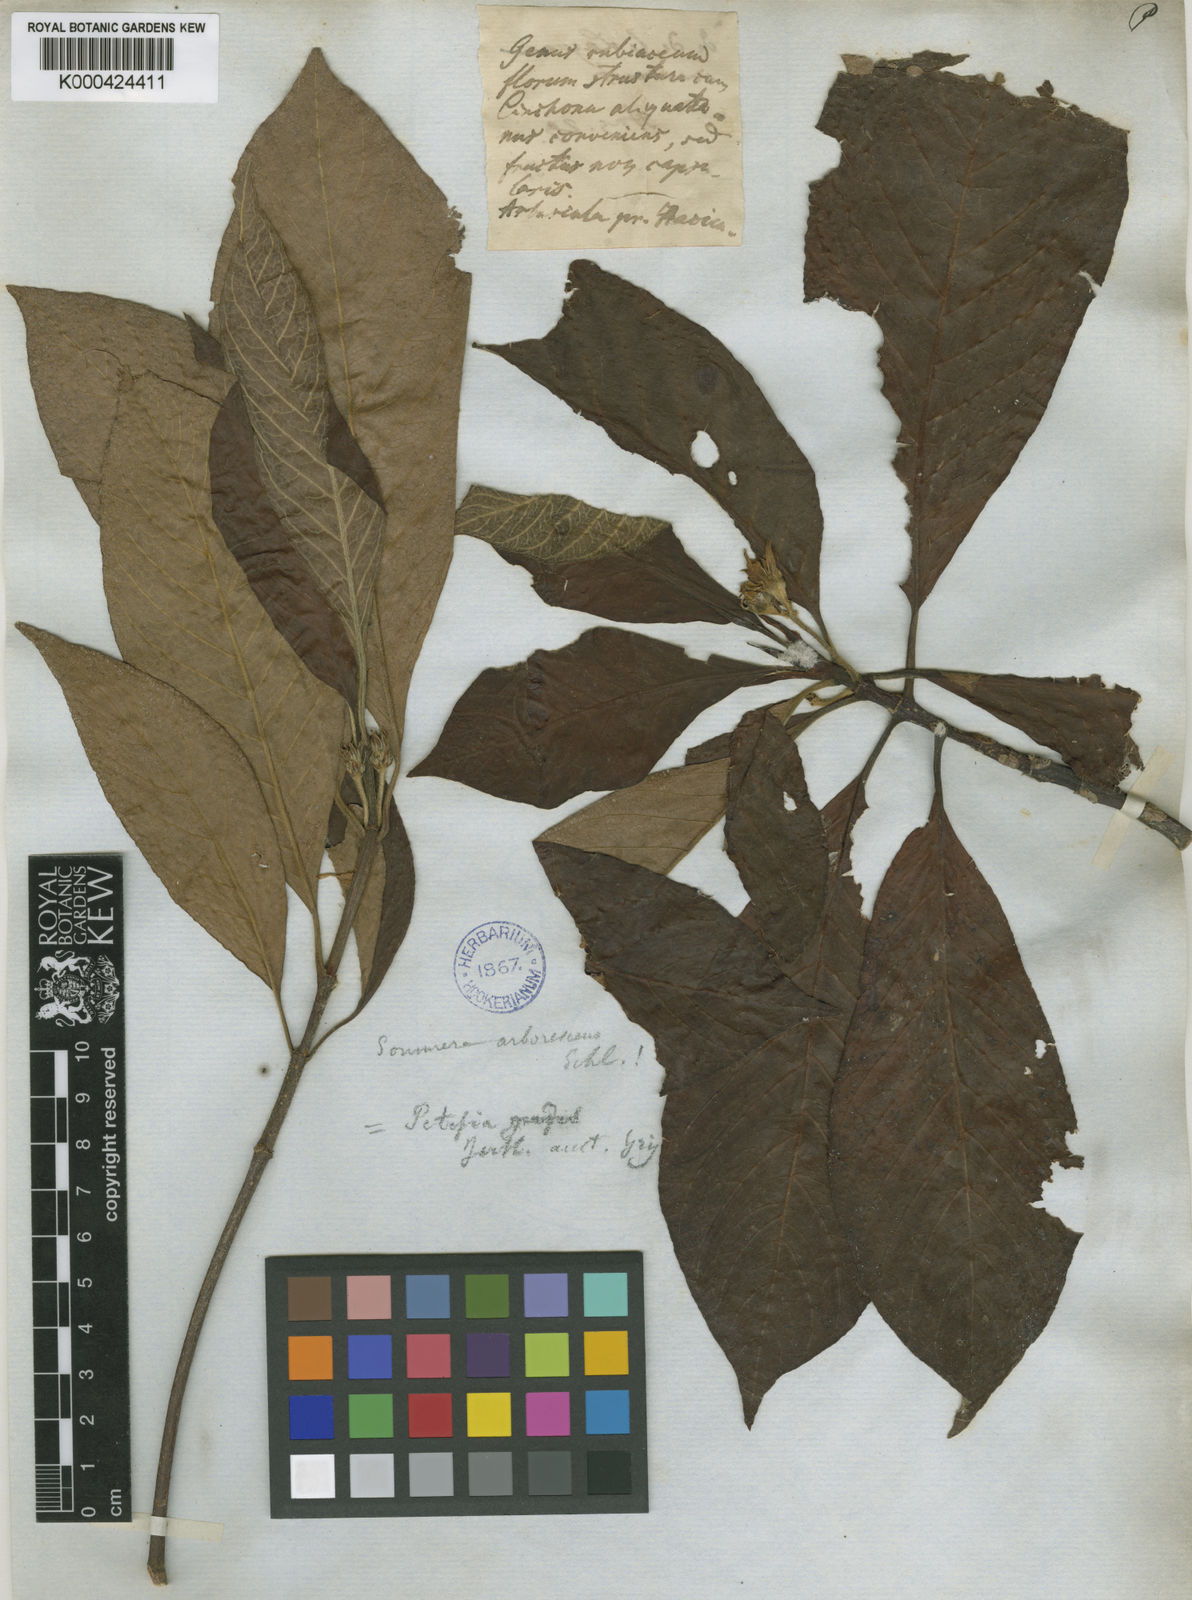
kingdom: Plantae
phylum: Tracheophyta
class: Magnoliopsida
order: Gentianales
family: Rubiaceae
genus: Sommera
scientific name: Sommera arborescens
